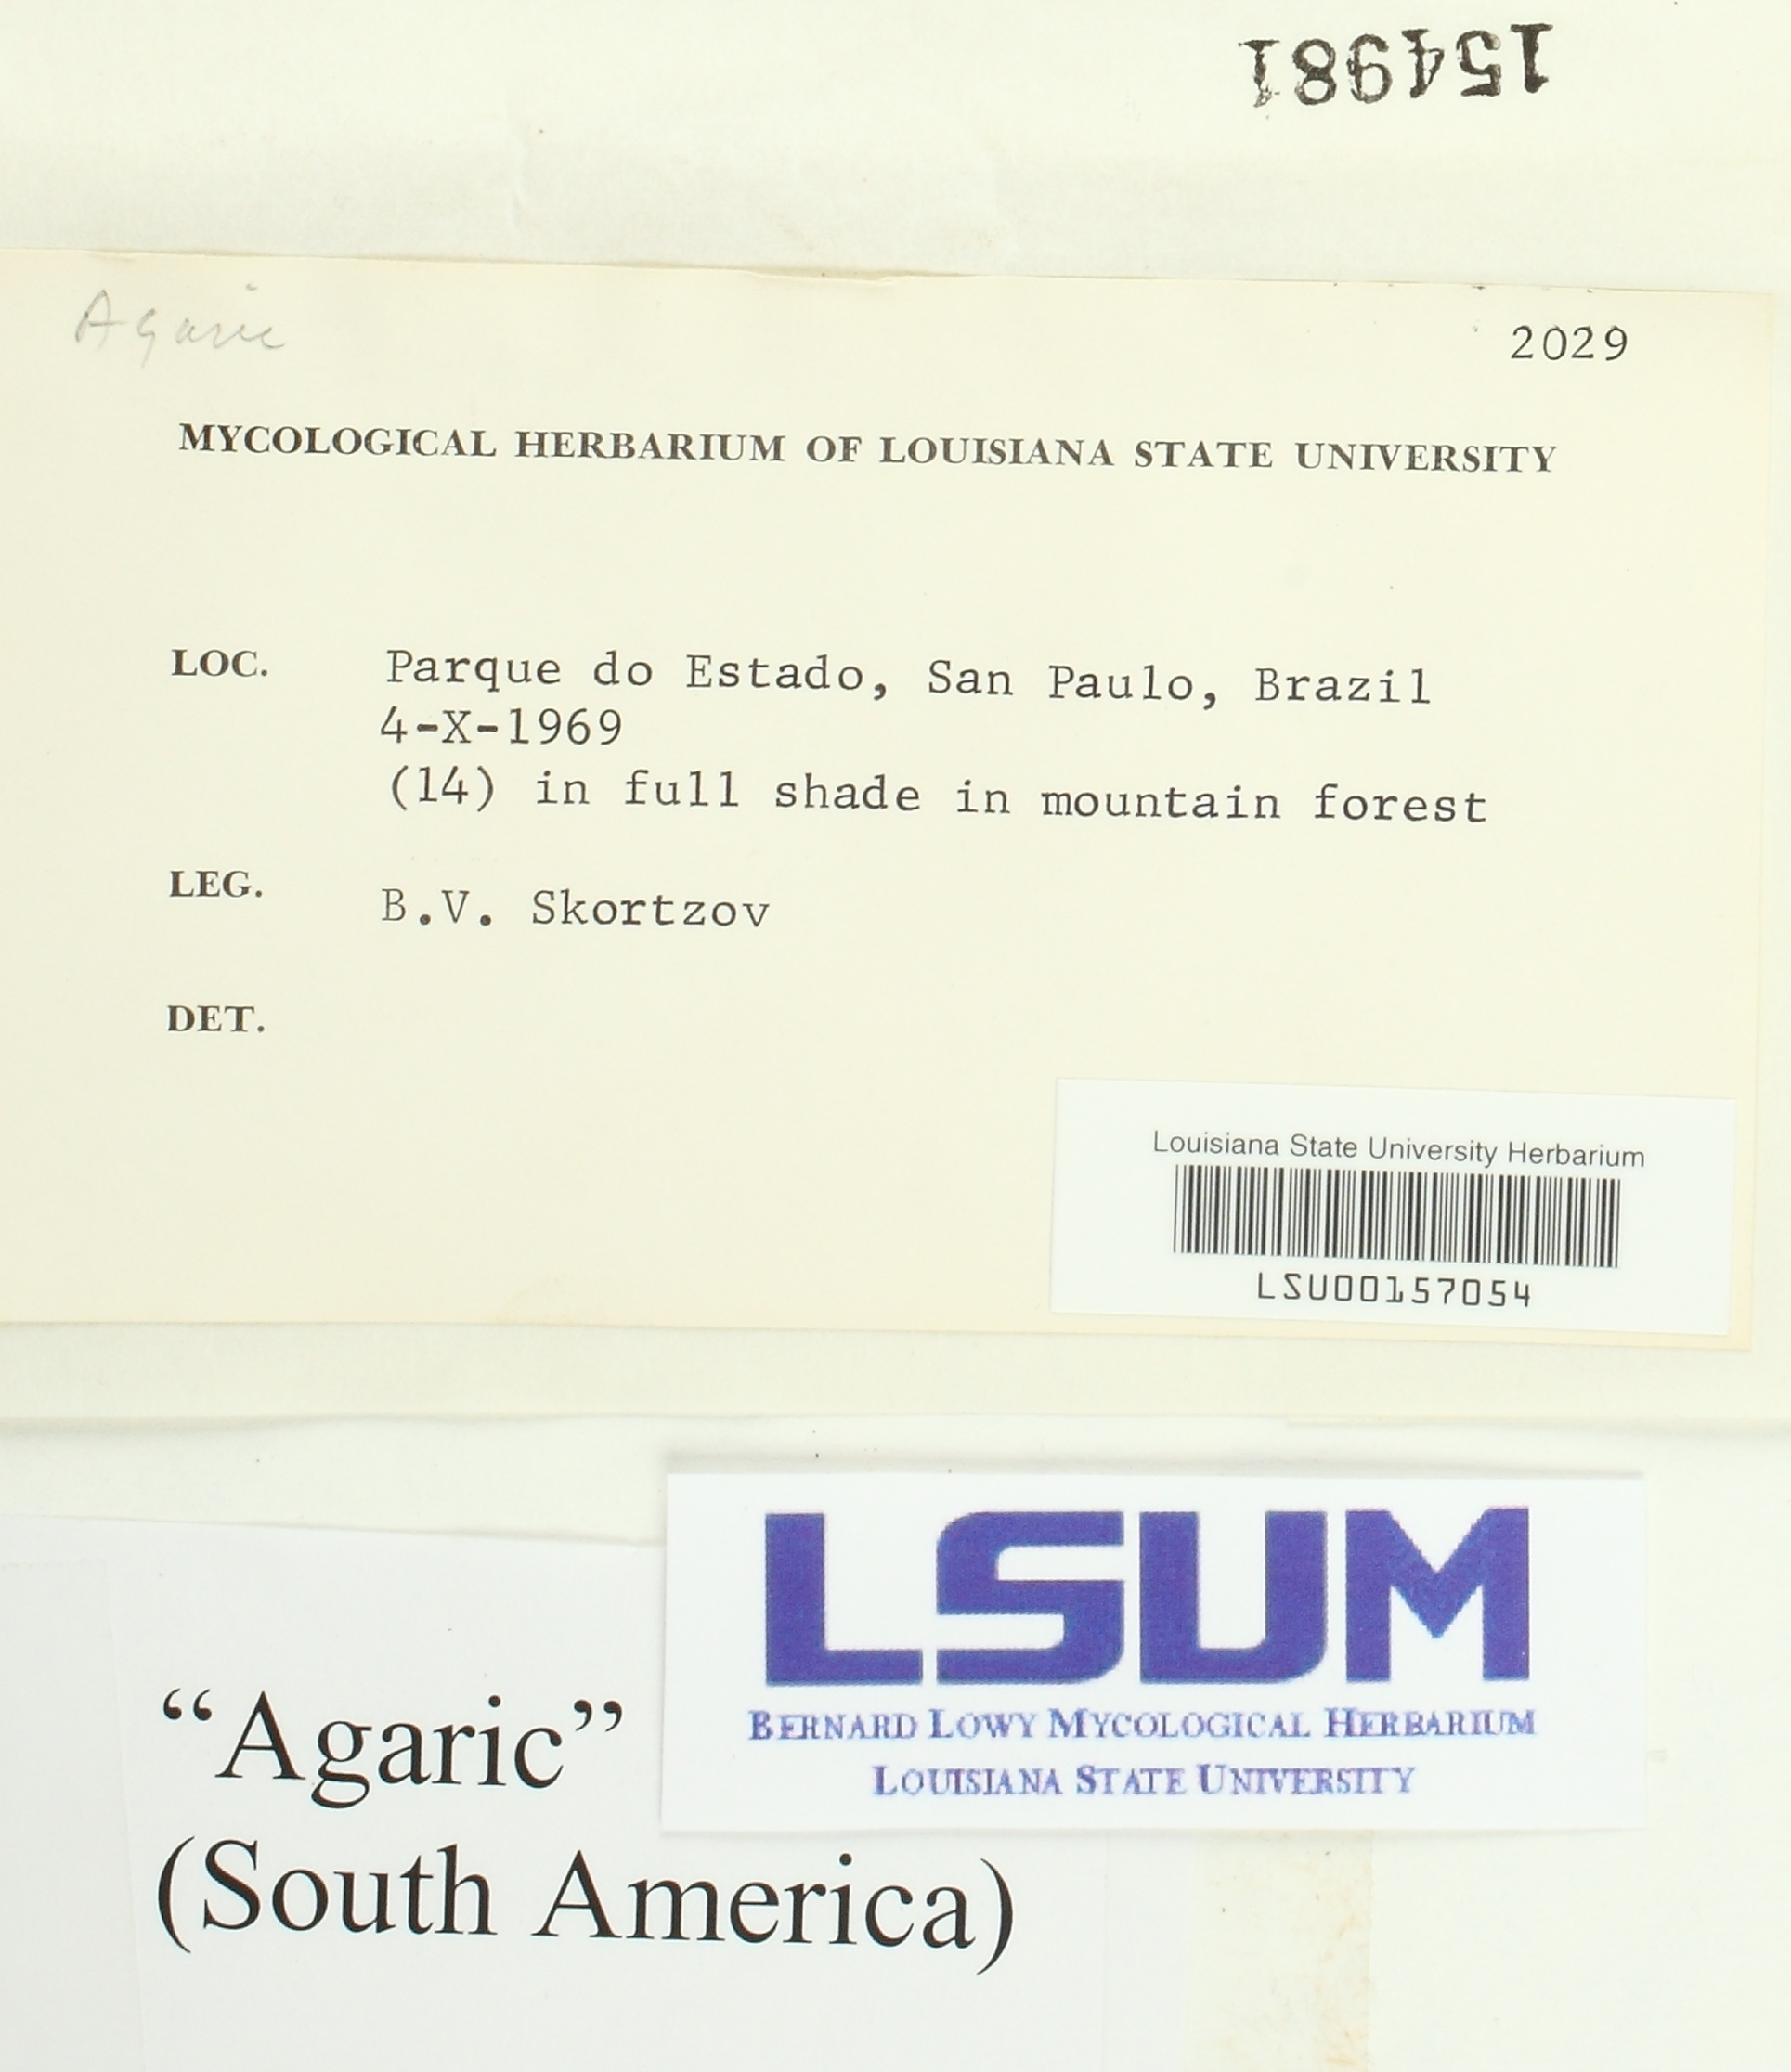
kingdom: Fungi
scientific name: Fungi
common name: Fungi
